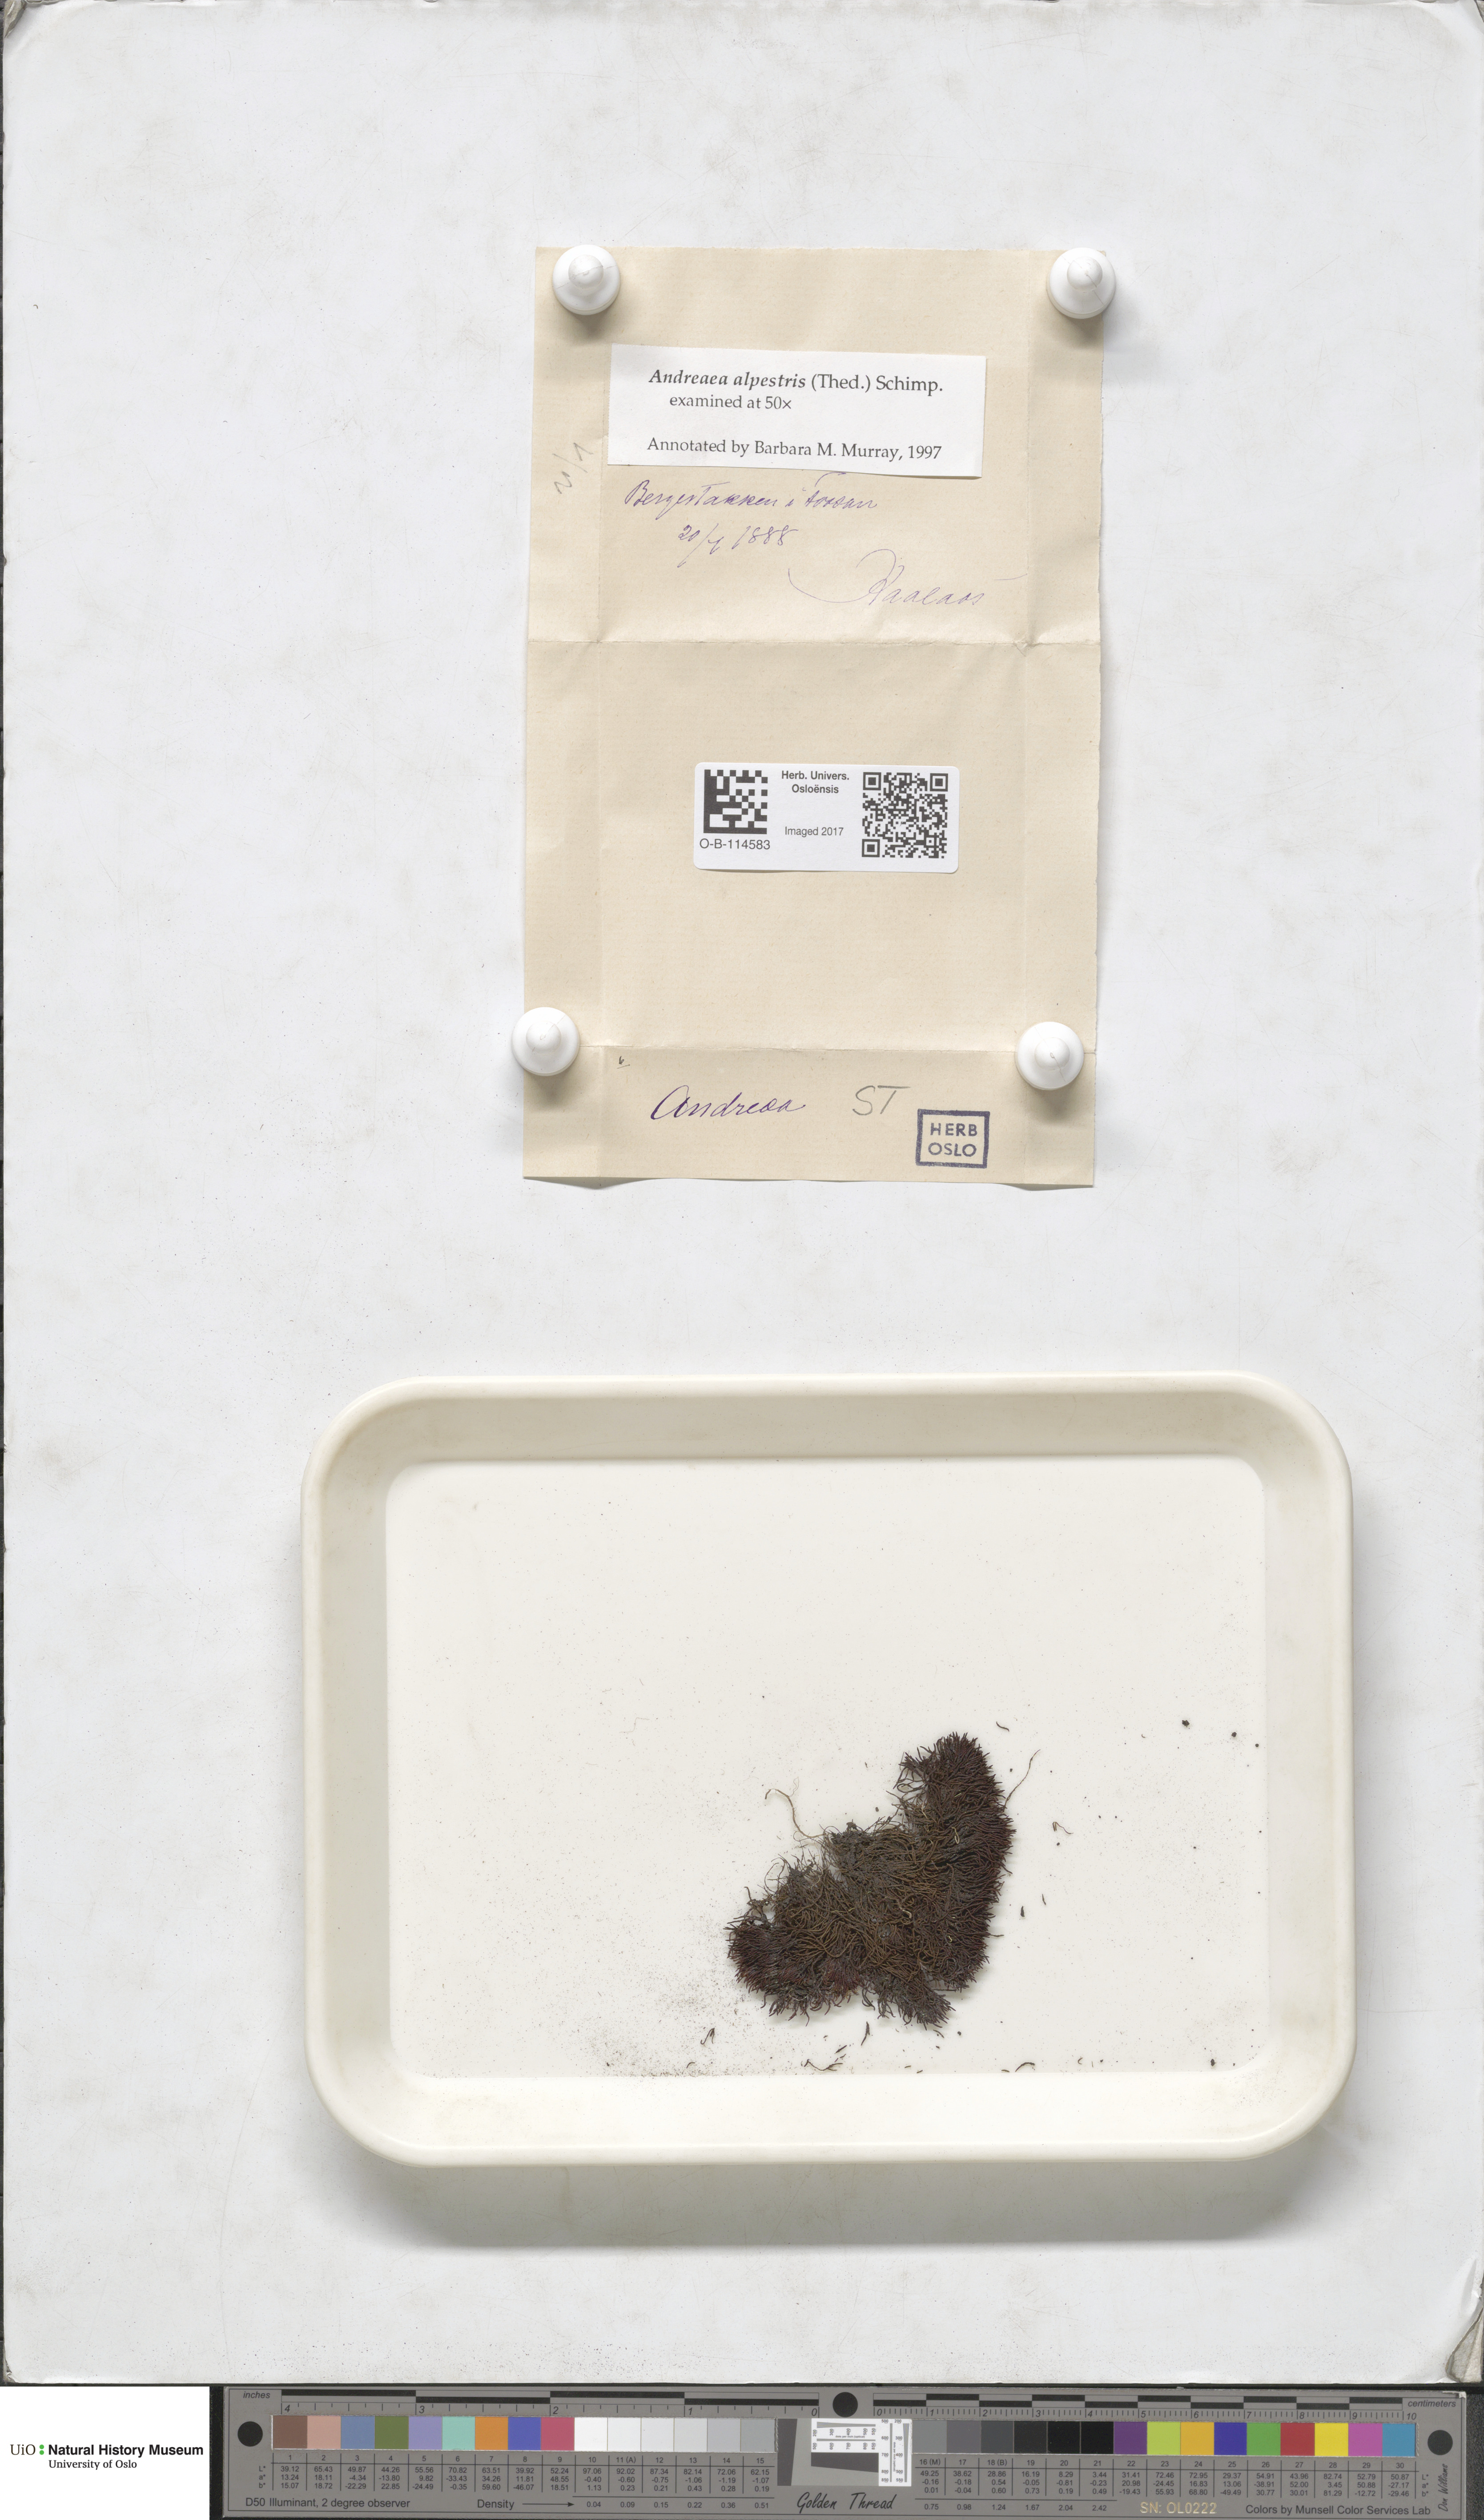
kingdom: Plantae
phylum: Bryophyta
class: Andreaeopsida
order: Andreaeales
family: Andreaeaceae
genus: Andreaea
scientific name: Andreaea alpestris
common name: Slender rock-moss
